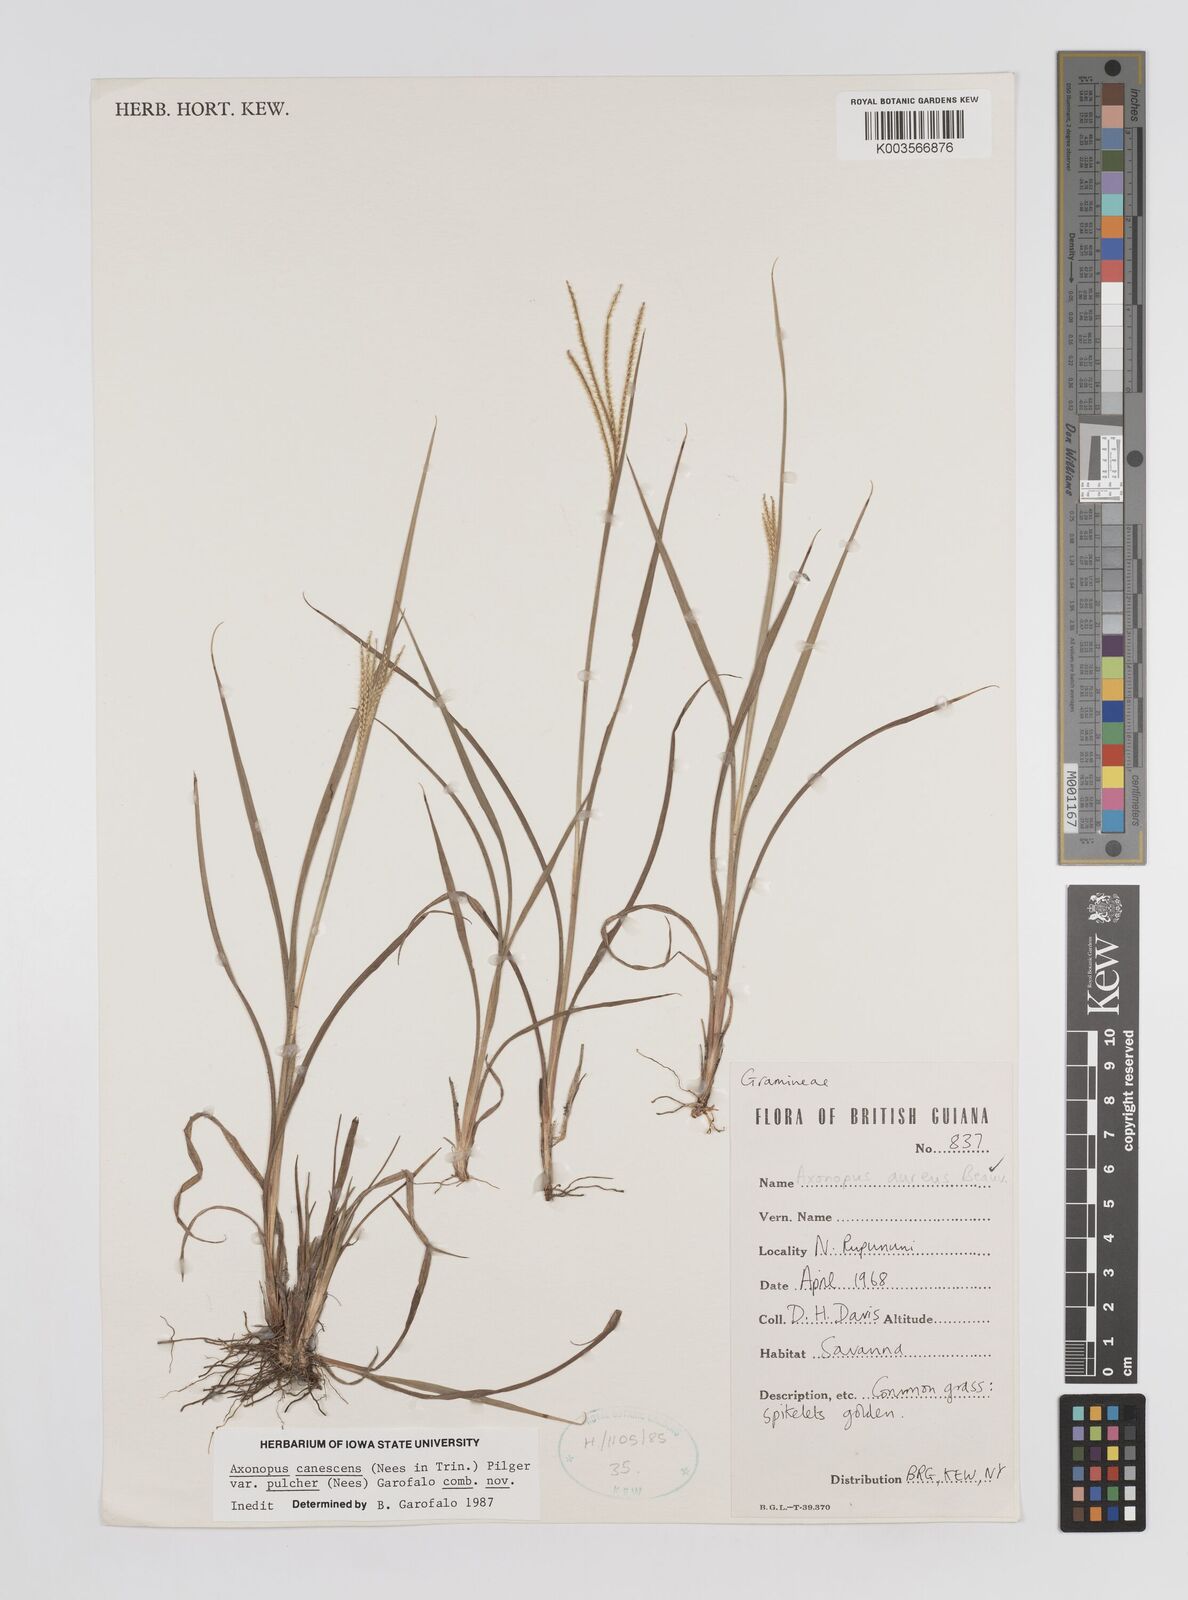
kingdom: Plantae
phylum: Tracheophyta
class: Liliopsida
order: Poales
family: Poaceae
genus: Axonopus
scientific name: Axonopus aureus
